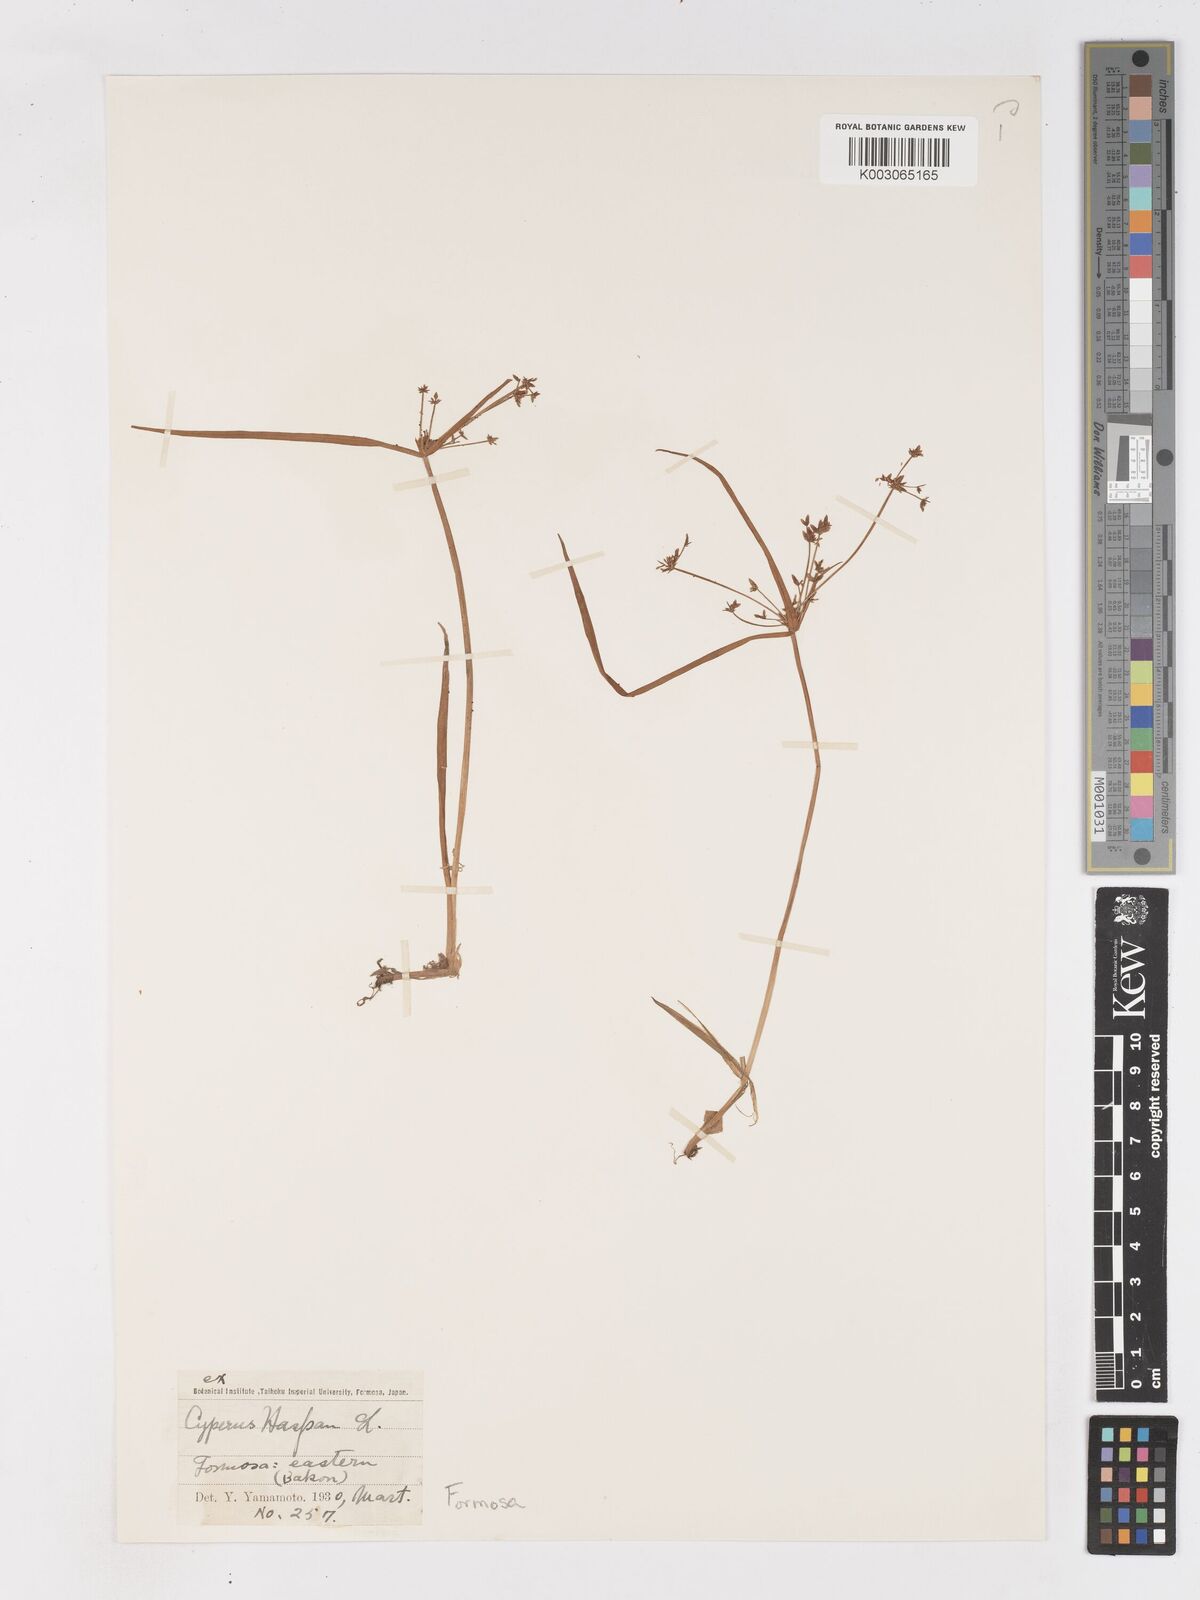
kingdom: Plantae
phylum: Tracheophyta
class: Liliopsida
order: Poales
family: Cyperaceae
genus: Cyperus
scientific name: Cyperus haspan
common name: Haspan flatsedge
